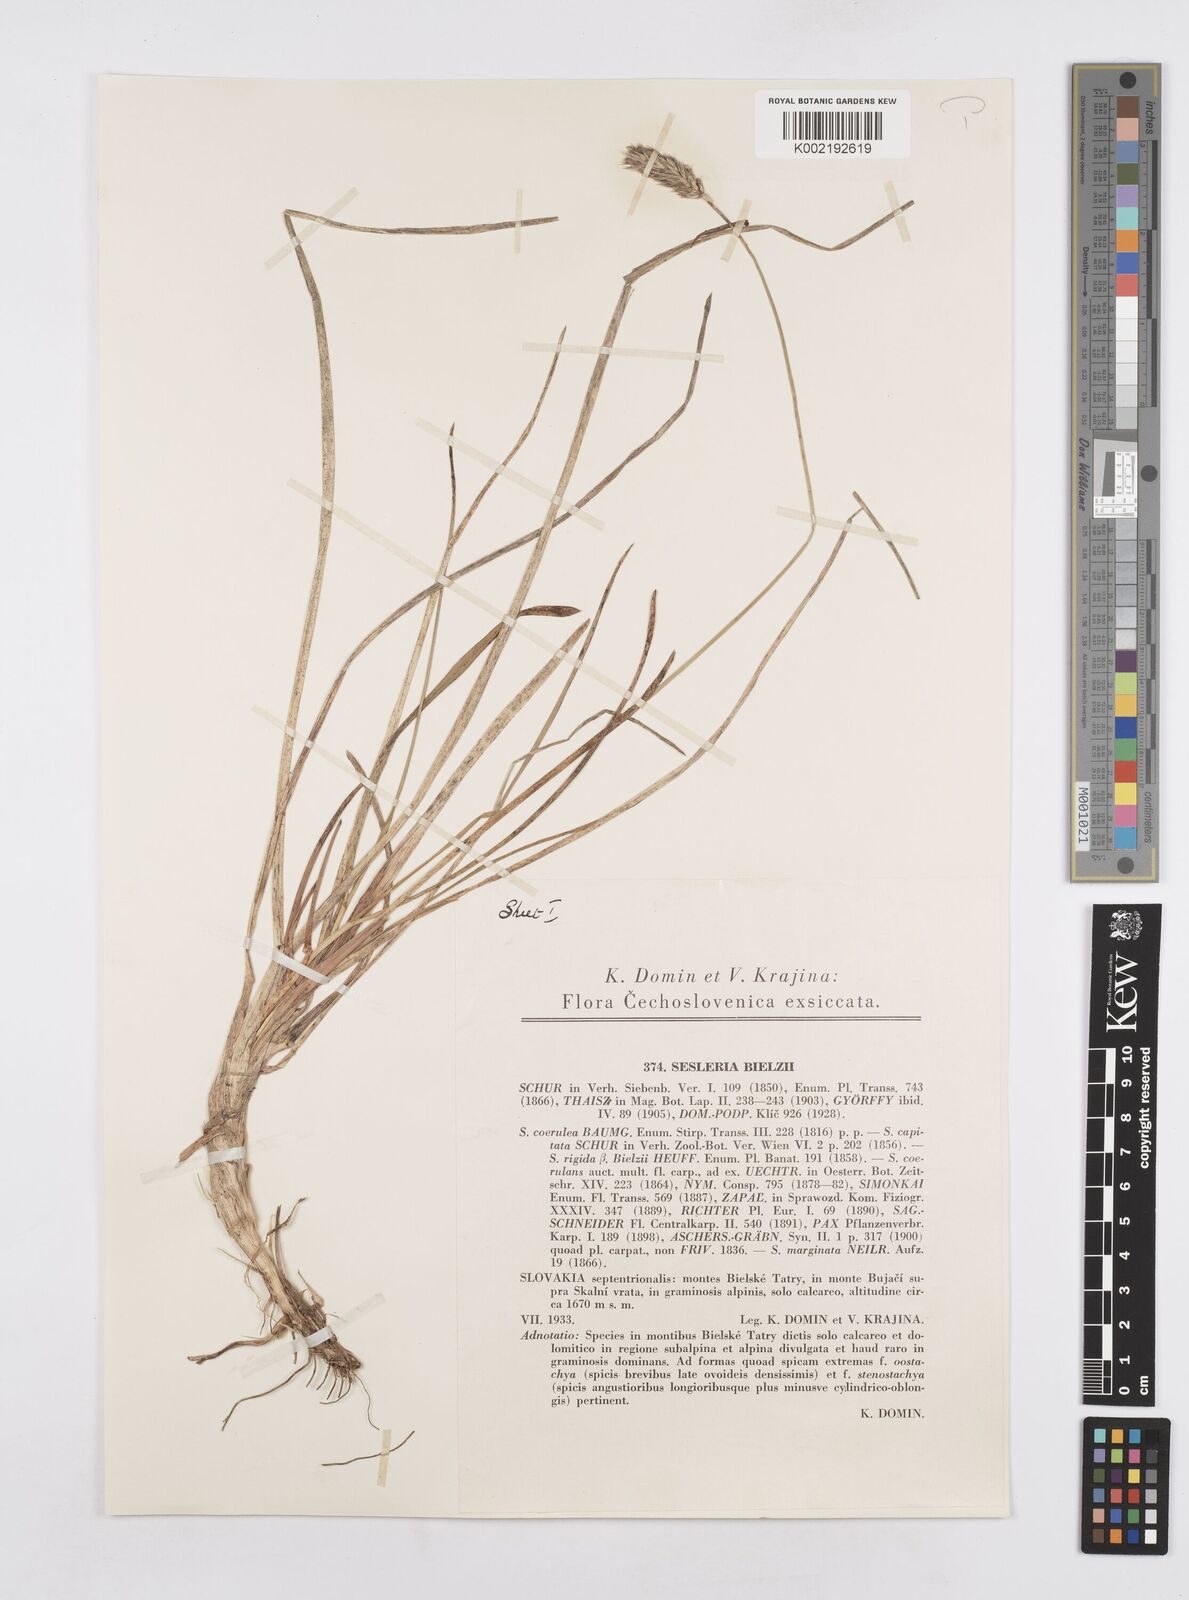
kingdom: Plantae
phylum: Tracheophyta
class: Liliopsida
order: Poales
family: Poaceae
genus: Sesleria
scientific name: Sesleria bielzii
